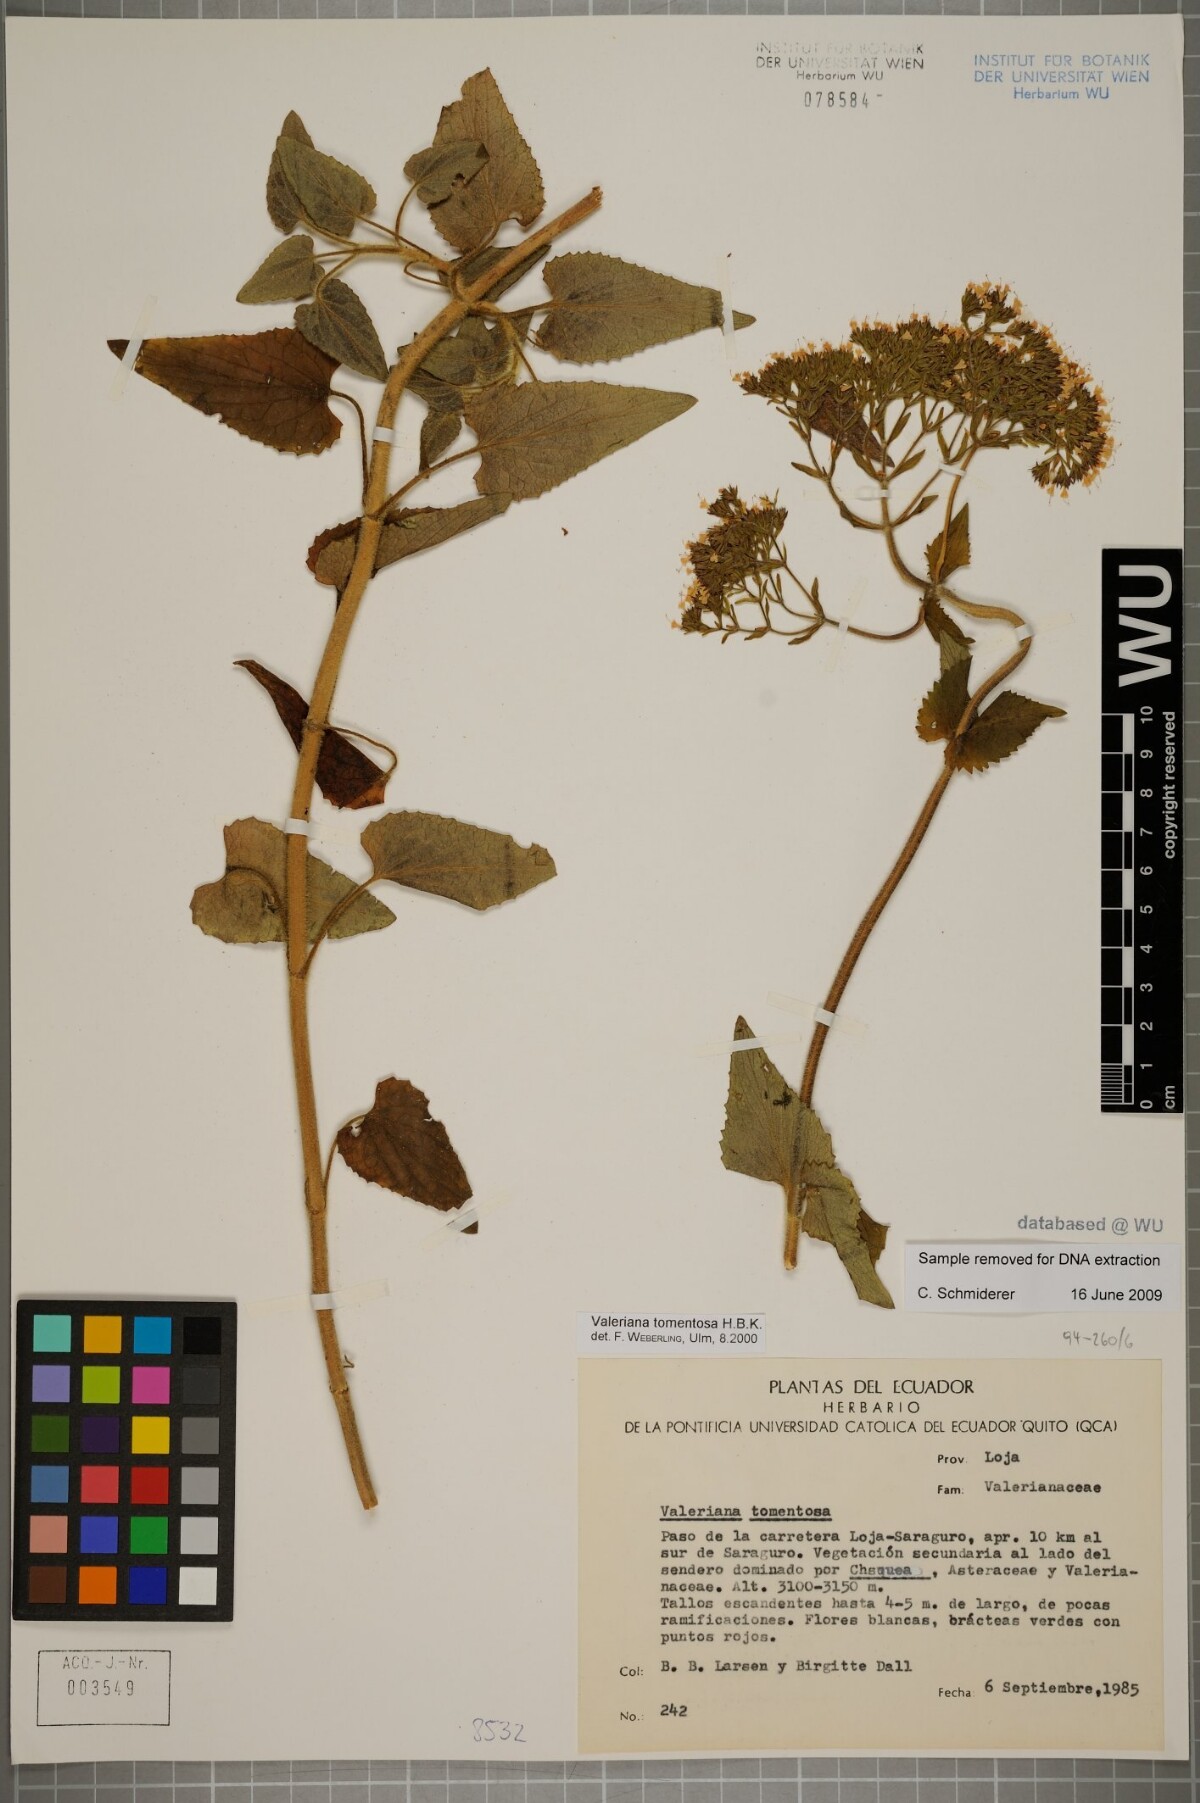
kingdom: Plantae
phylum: Tracheophyta
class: Magnoliopsida
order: Dipsacales
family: Caprifoliaceae
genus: Valeriana
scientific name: Valeriana tomentosa
